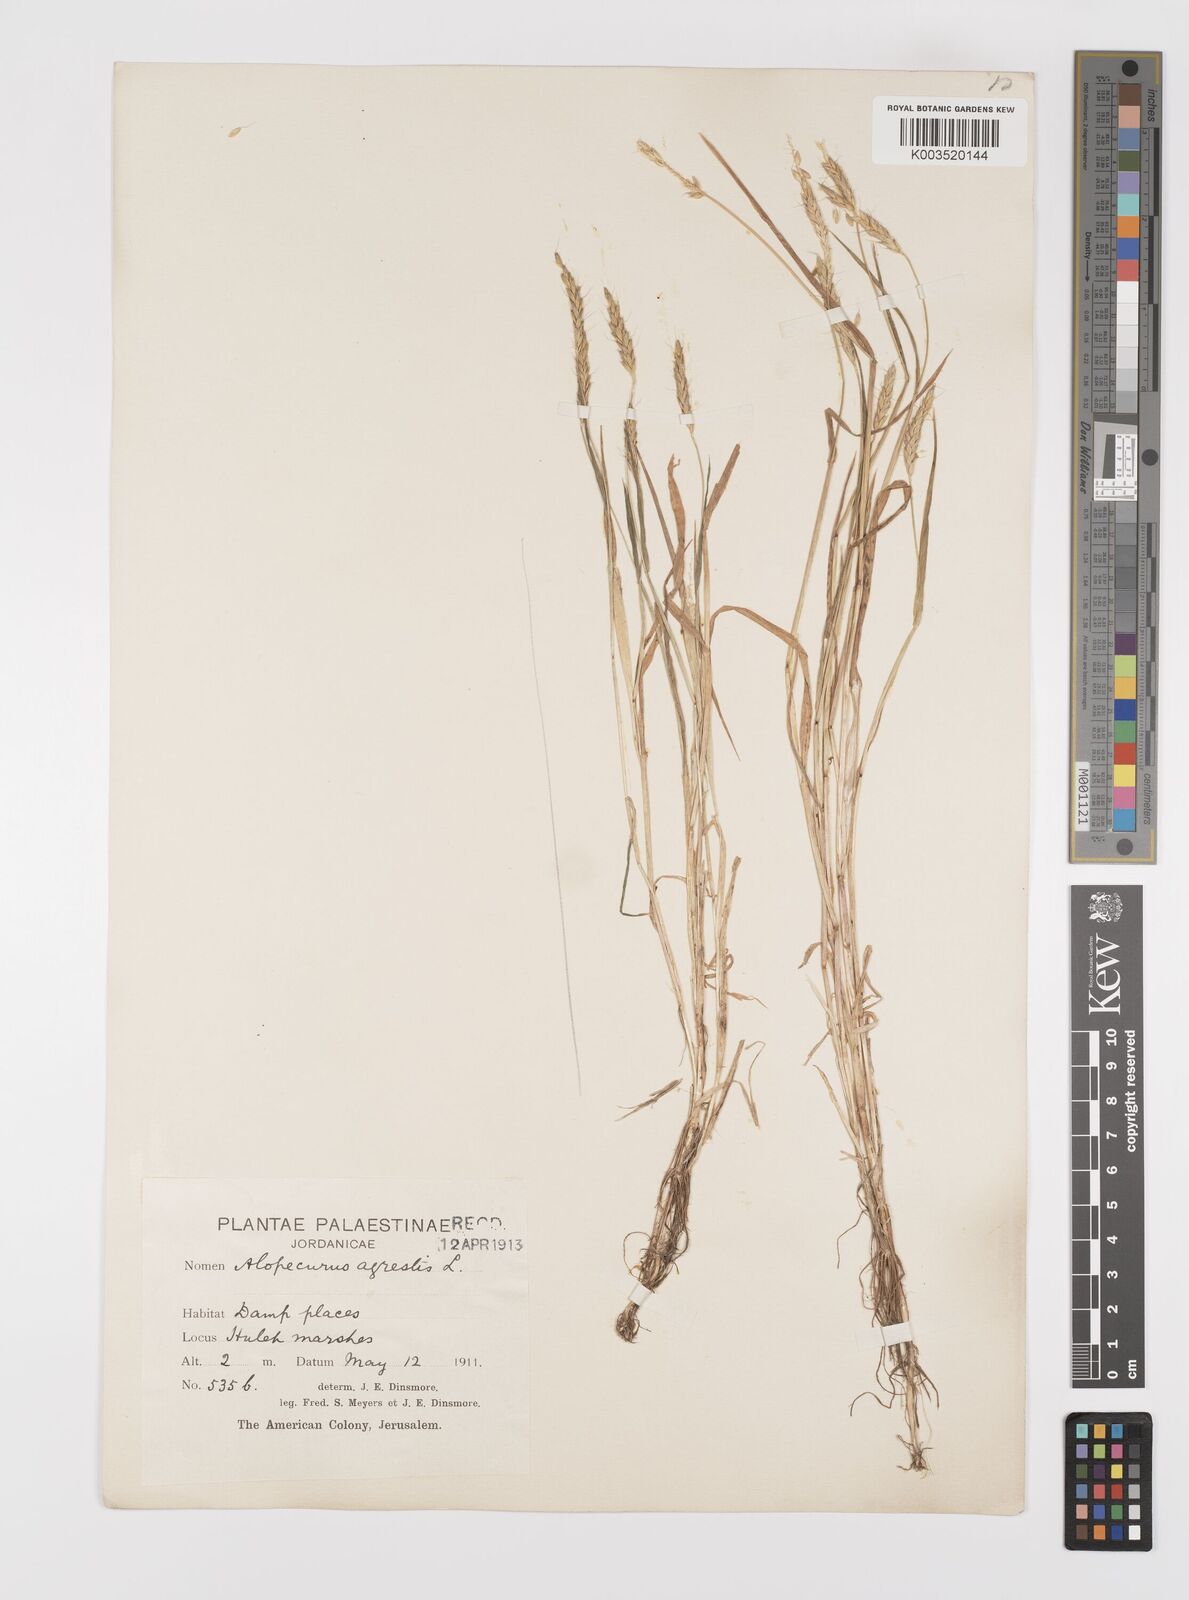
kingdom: Plantae
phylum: Tracheophyta
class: Liliopsida
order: Poales
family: Poaceae
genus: Alopecurus
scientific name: Alopecurus myosuroides
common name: Black-grass
